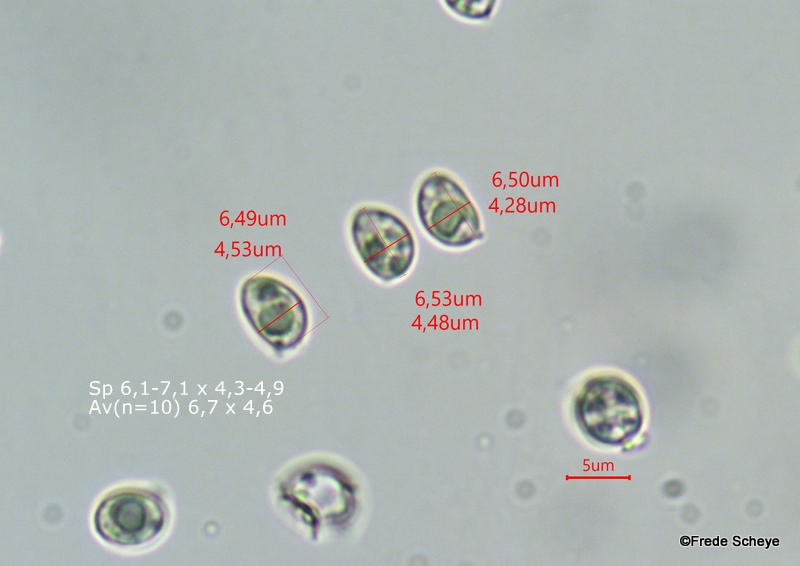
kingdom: Fungi
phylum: Basidiomycota
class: Agaricomycetes
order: Agaricales
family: Tubariaceae
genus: Tubaria
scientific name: Tubaria conspersa
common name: bleg fnughat
